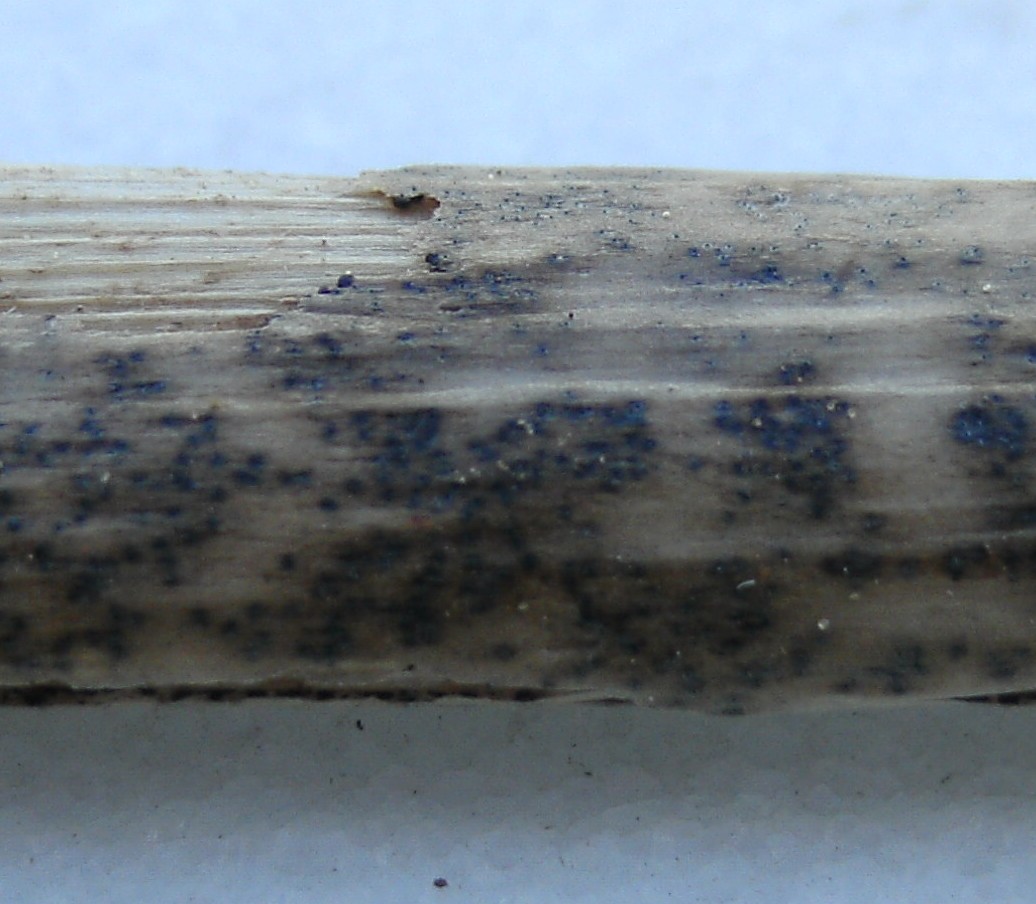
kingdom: Fungi
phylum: Ascomycota
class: Dothideomycetes
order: Pleosporales
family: Leptosphaeriaceae
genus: Leptosphaeria
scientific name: Leptosphaeria bellynckii
